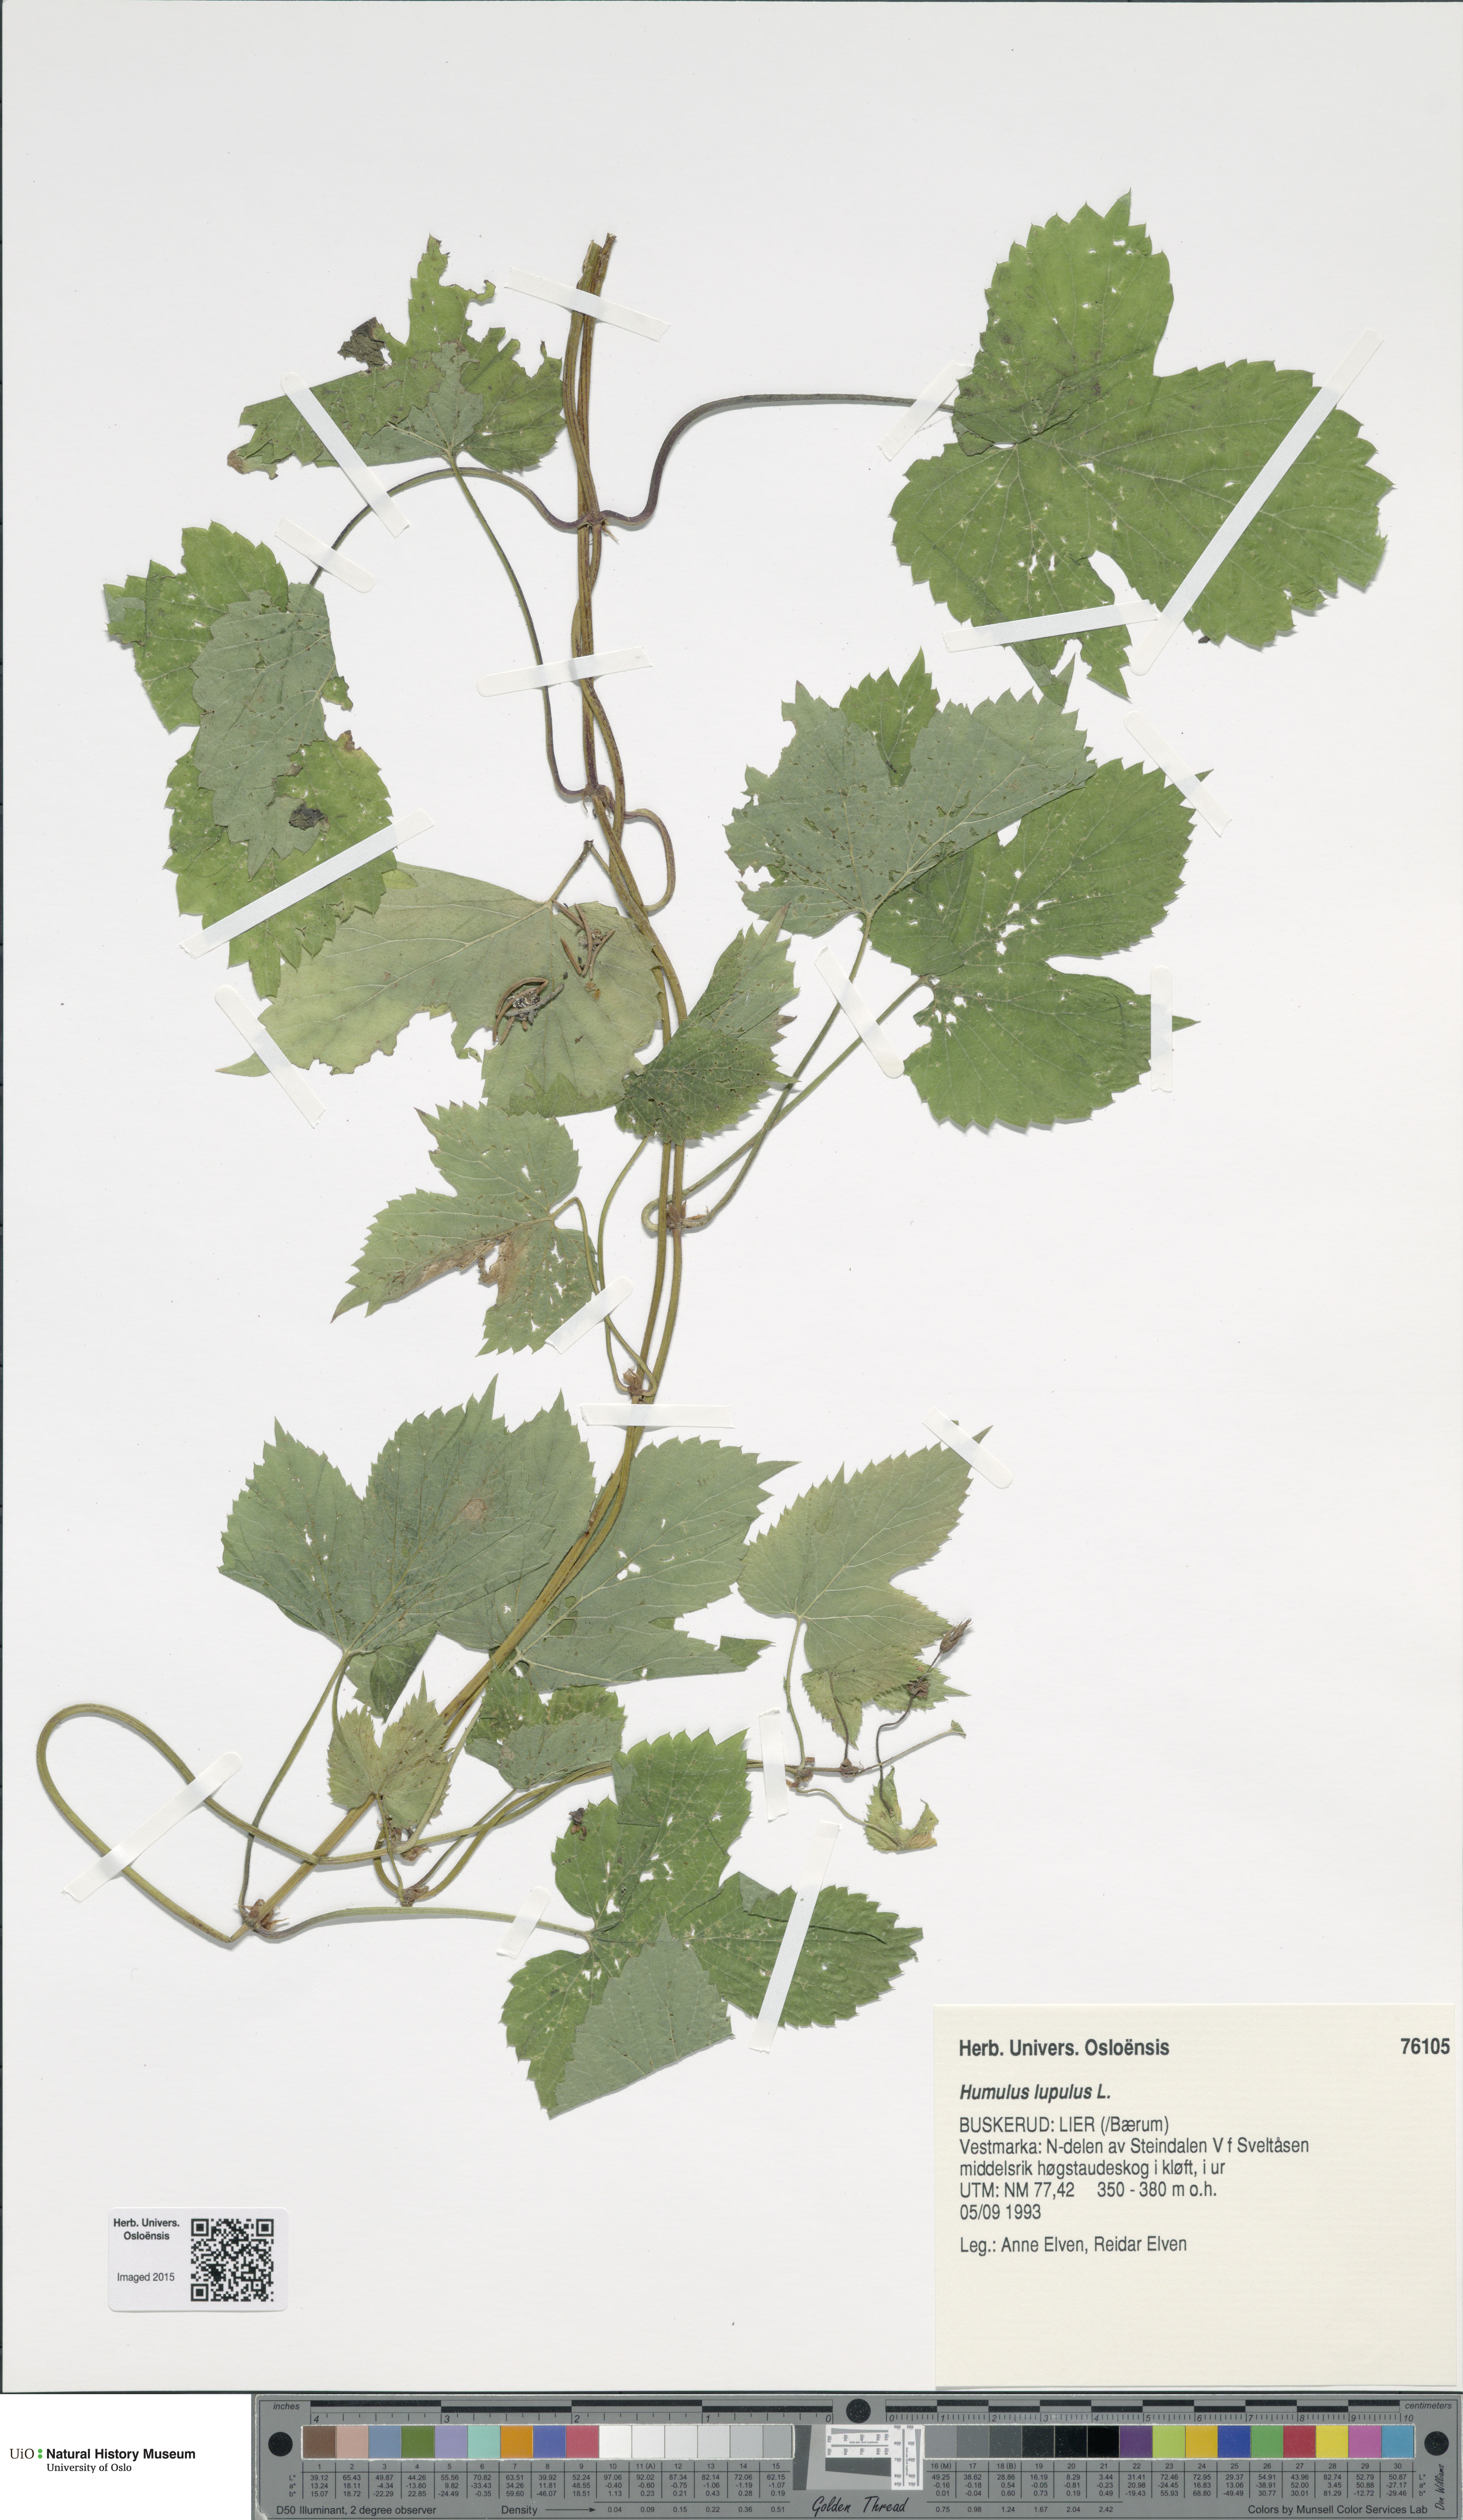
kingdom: Plantae
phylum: Tracheophyta
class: Magnoliopsida
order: Rosales
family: Cannabaceae
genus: Humulus
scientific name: Humulus lupulus
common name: Hop
